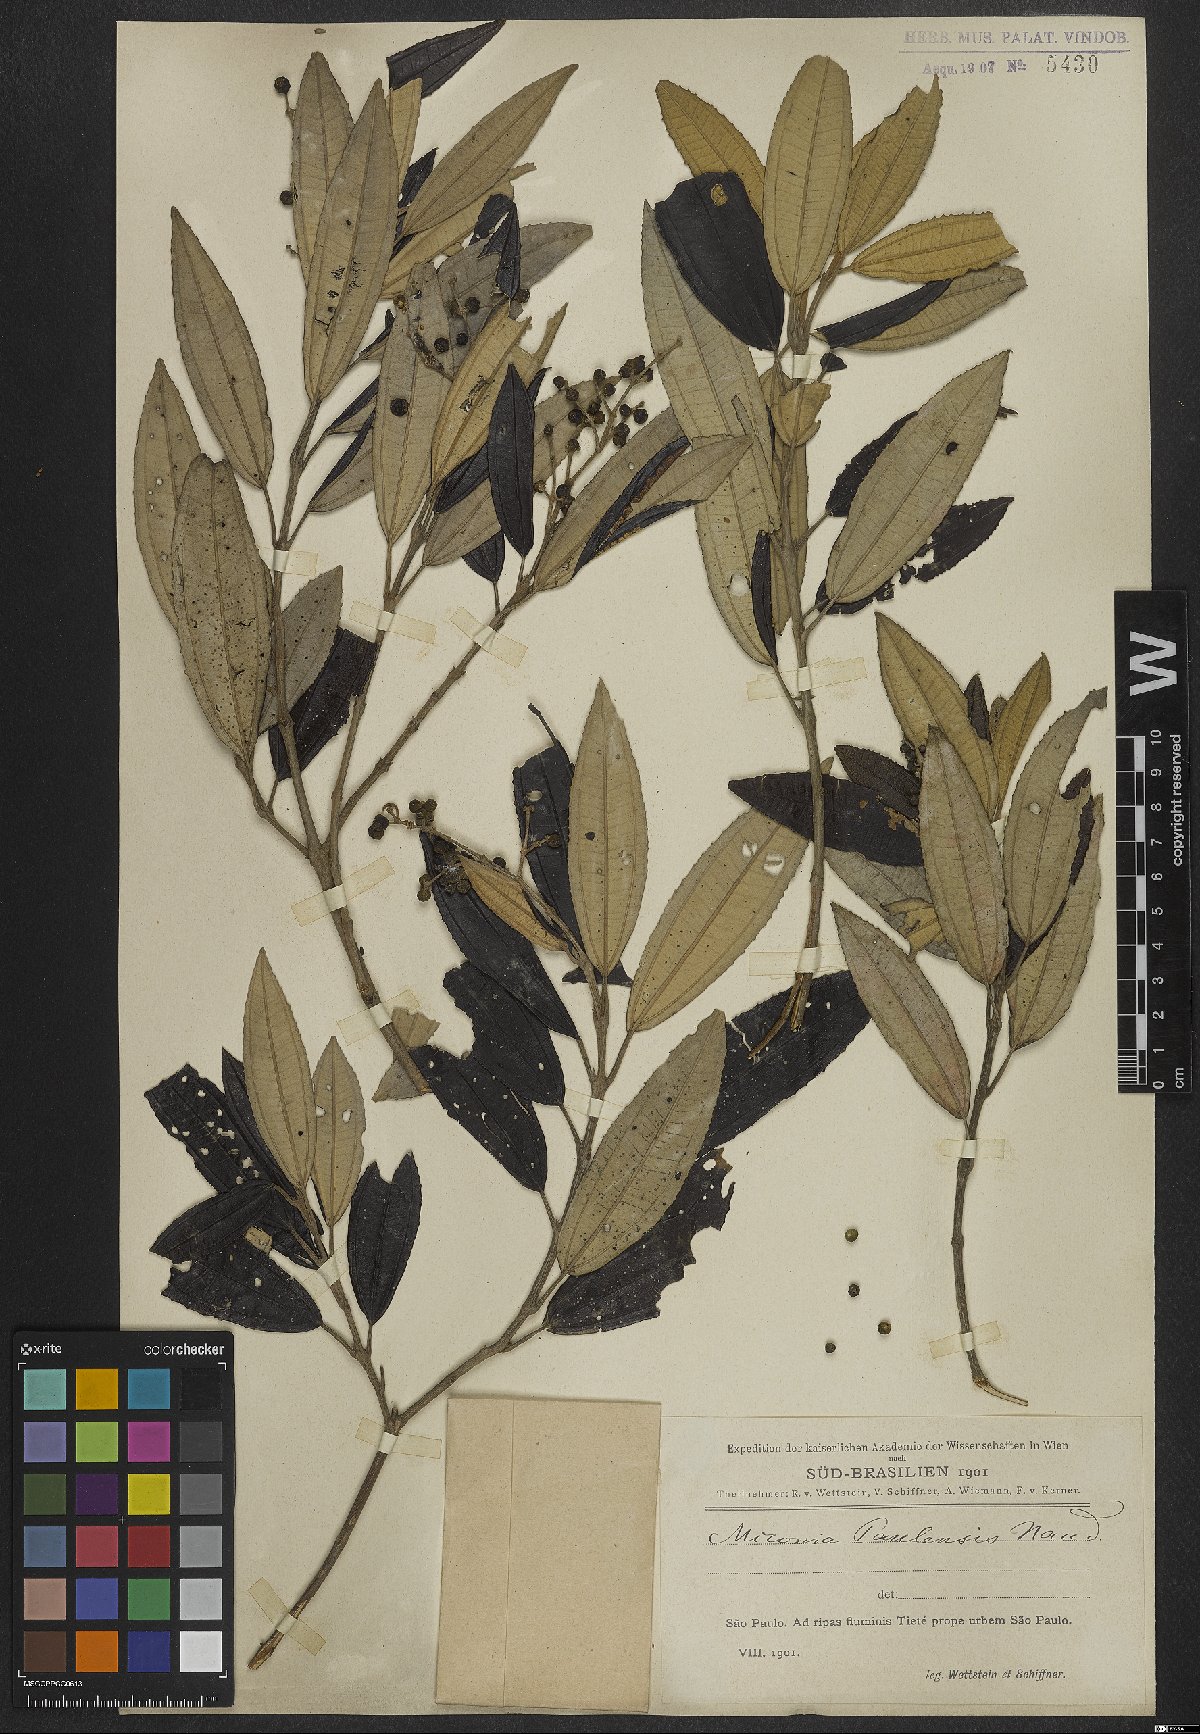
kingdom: Plantae
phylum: Tracheophyta
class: Magnoliopsida
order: Myrtales
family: Melastomataceae
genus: Miconia
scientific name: Miconia cinerascens
